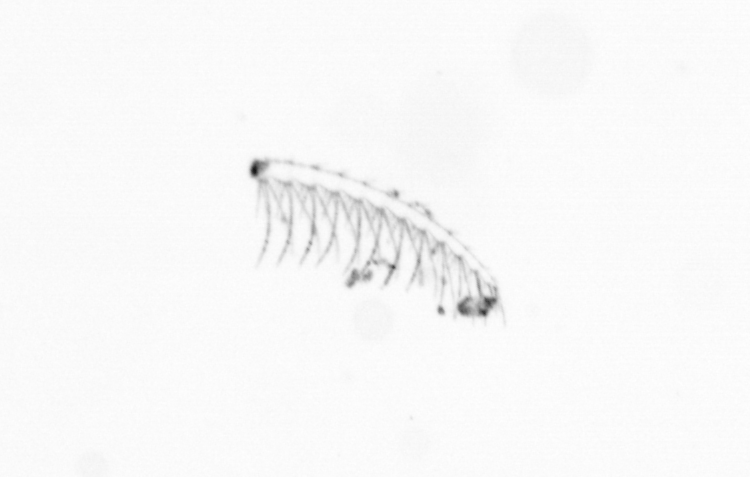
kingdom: Chromista
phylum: Ochrophyta
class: Bacillariophyceae
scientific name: Bacillariophyceae
